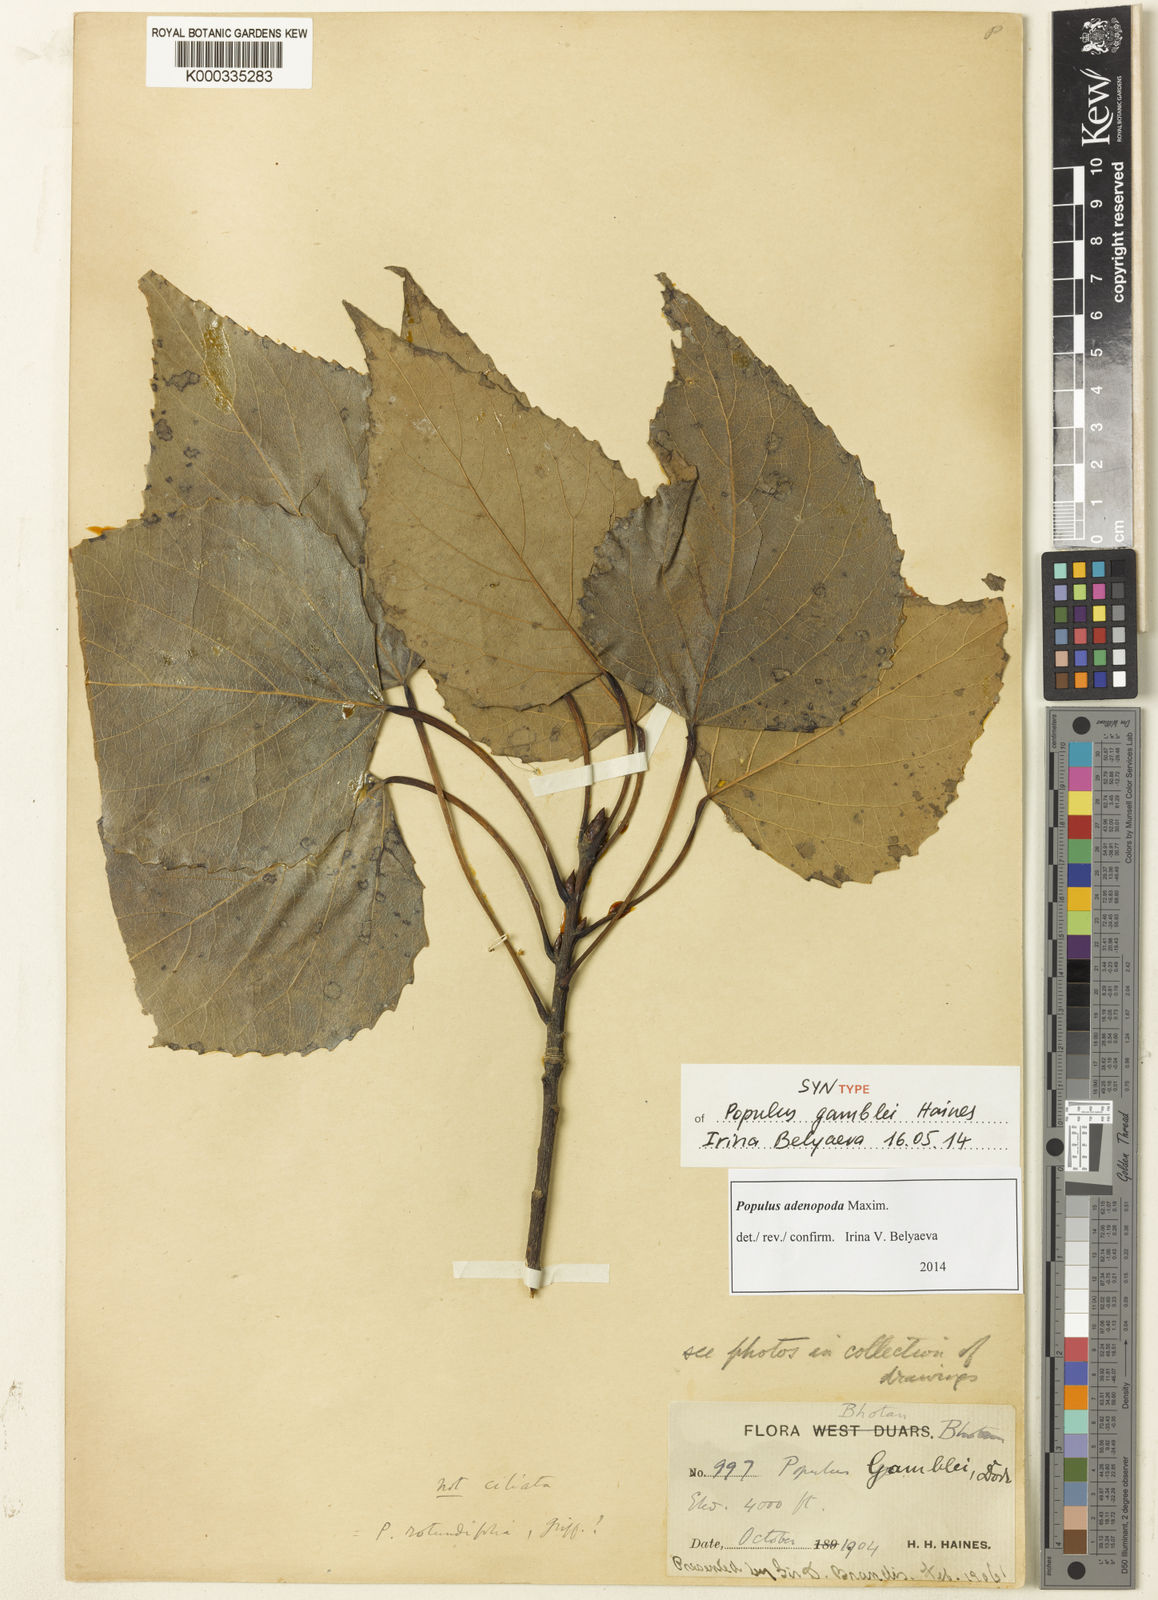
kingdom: Plantae
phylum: Tracheophyta
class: Magnoliopsida
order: Malpighiales
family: Salicaceae
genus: Populus
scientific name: Populus
